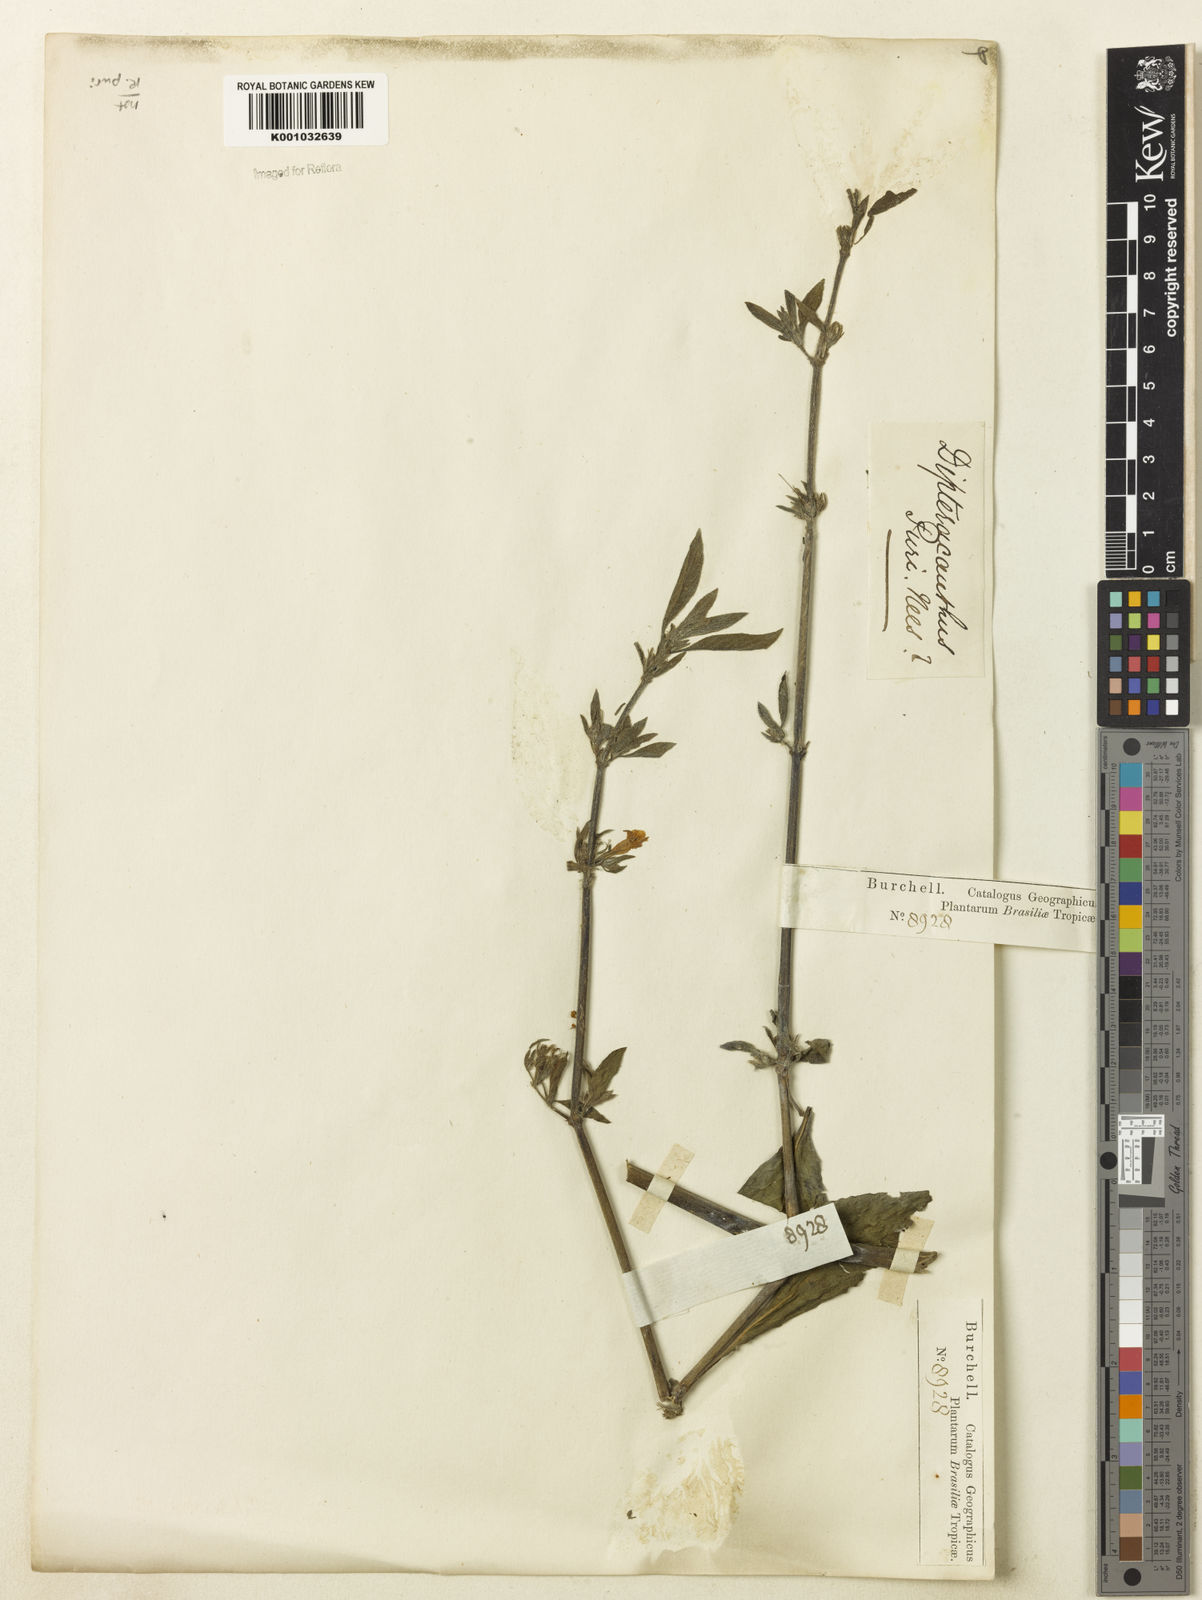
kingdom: Plantae
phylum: Tracheophyta
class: Magnoliopsida
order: Lamiales
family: Acanthaceae
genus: Ruellia
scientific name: Ruellia
